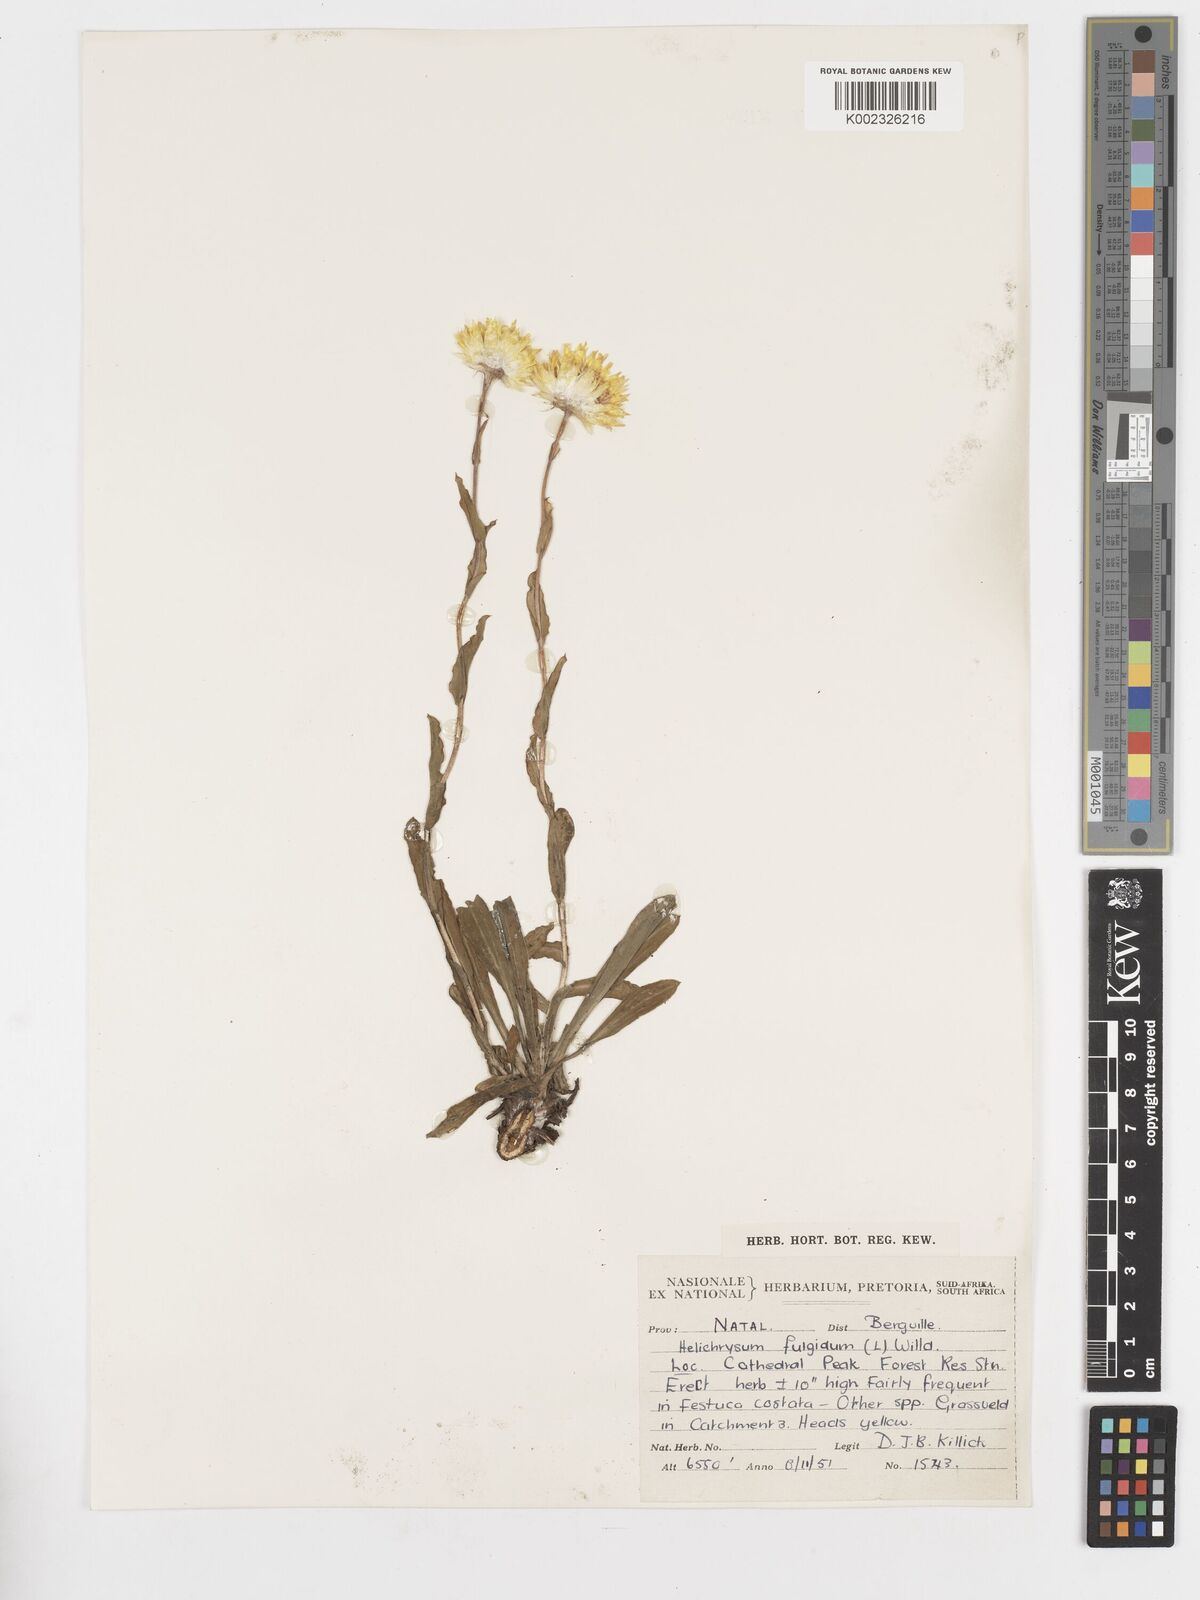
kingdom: Plantae
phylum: Tracheophyta
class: Magnoliopsida
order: Asterales
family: Asteraceae
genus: Helichrysum
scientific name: Helichrysum aureum
